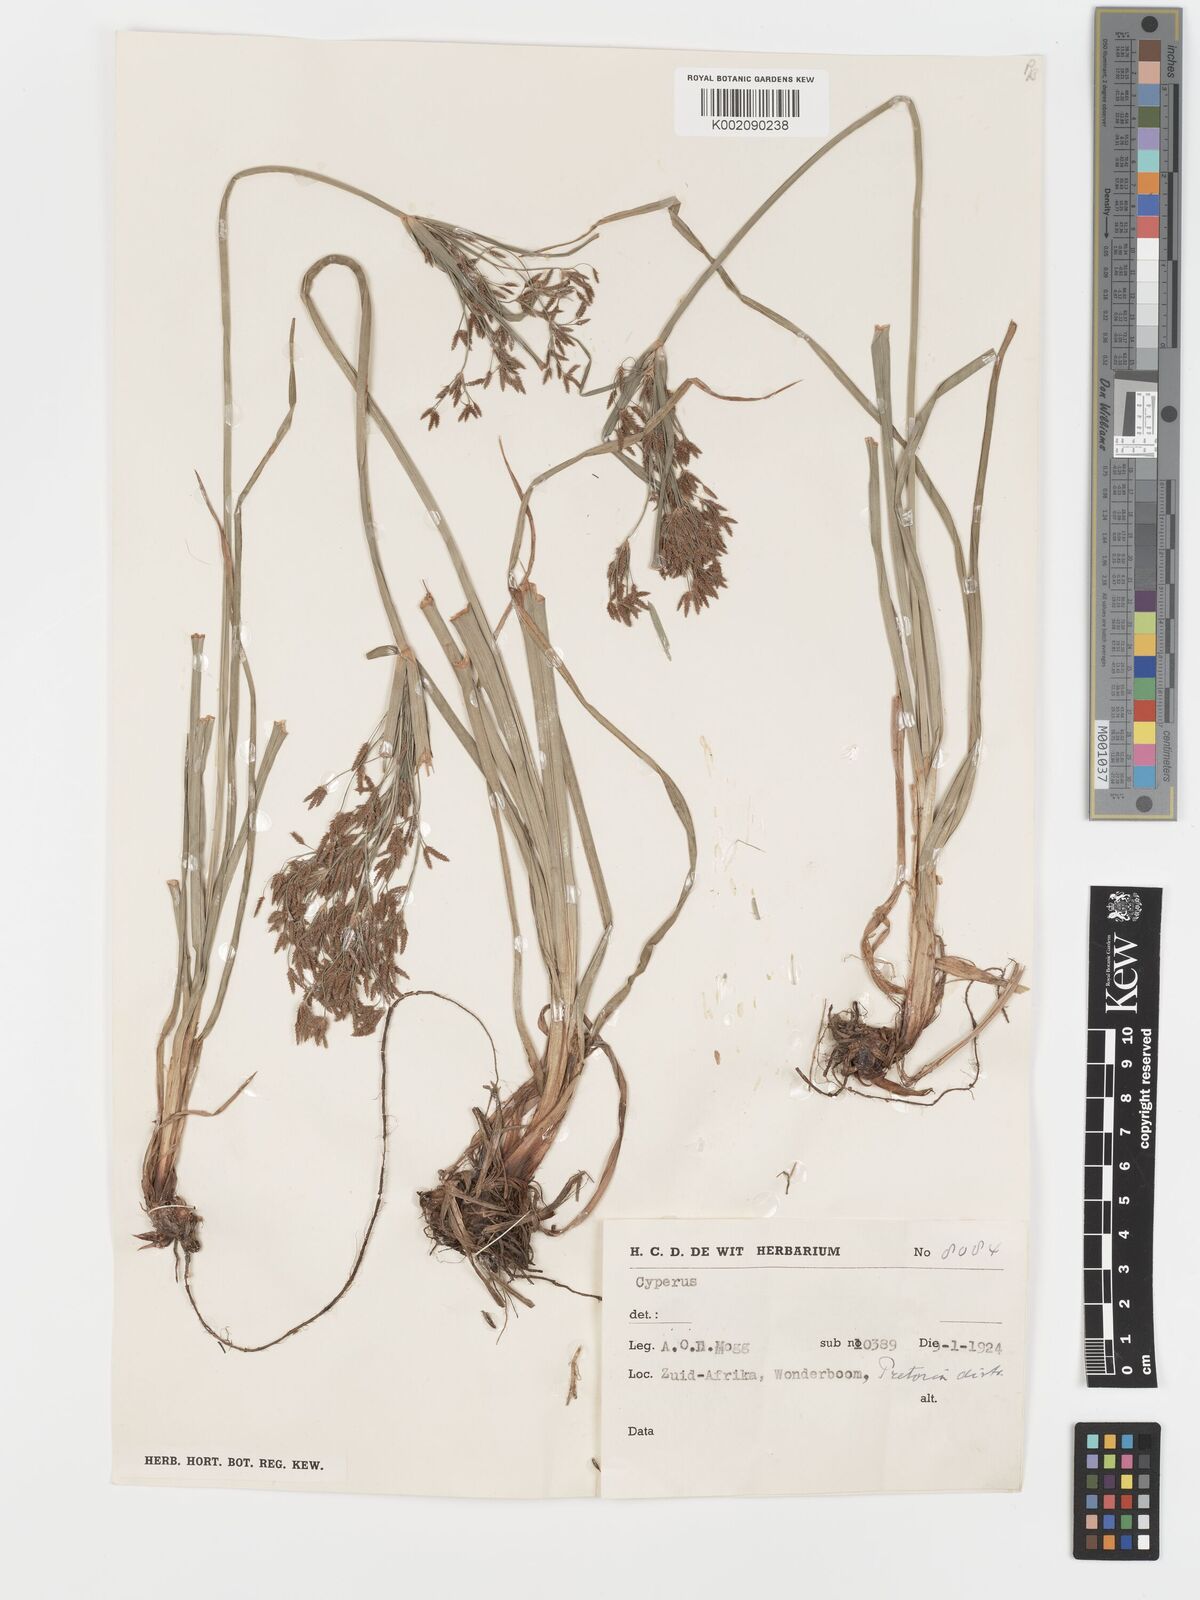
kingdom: Plantae
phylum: Tracheophyta
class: Liliopsida
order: Poales
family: Cyperaceae
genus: Cyperus
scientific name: Cyperus leptocladus
